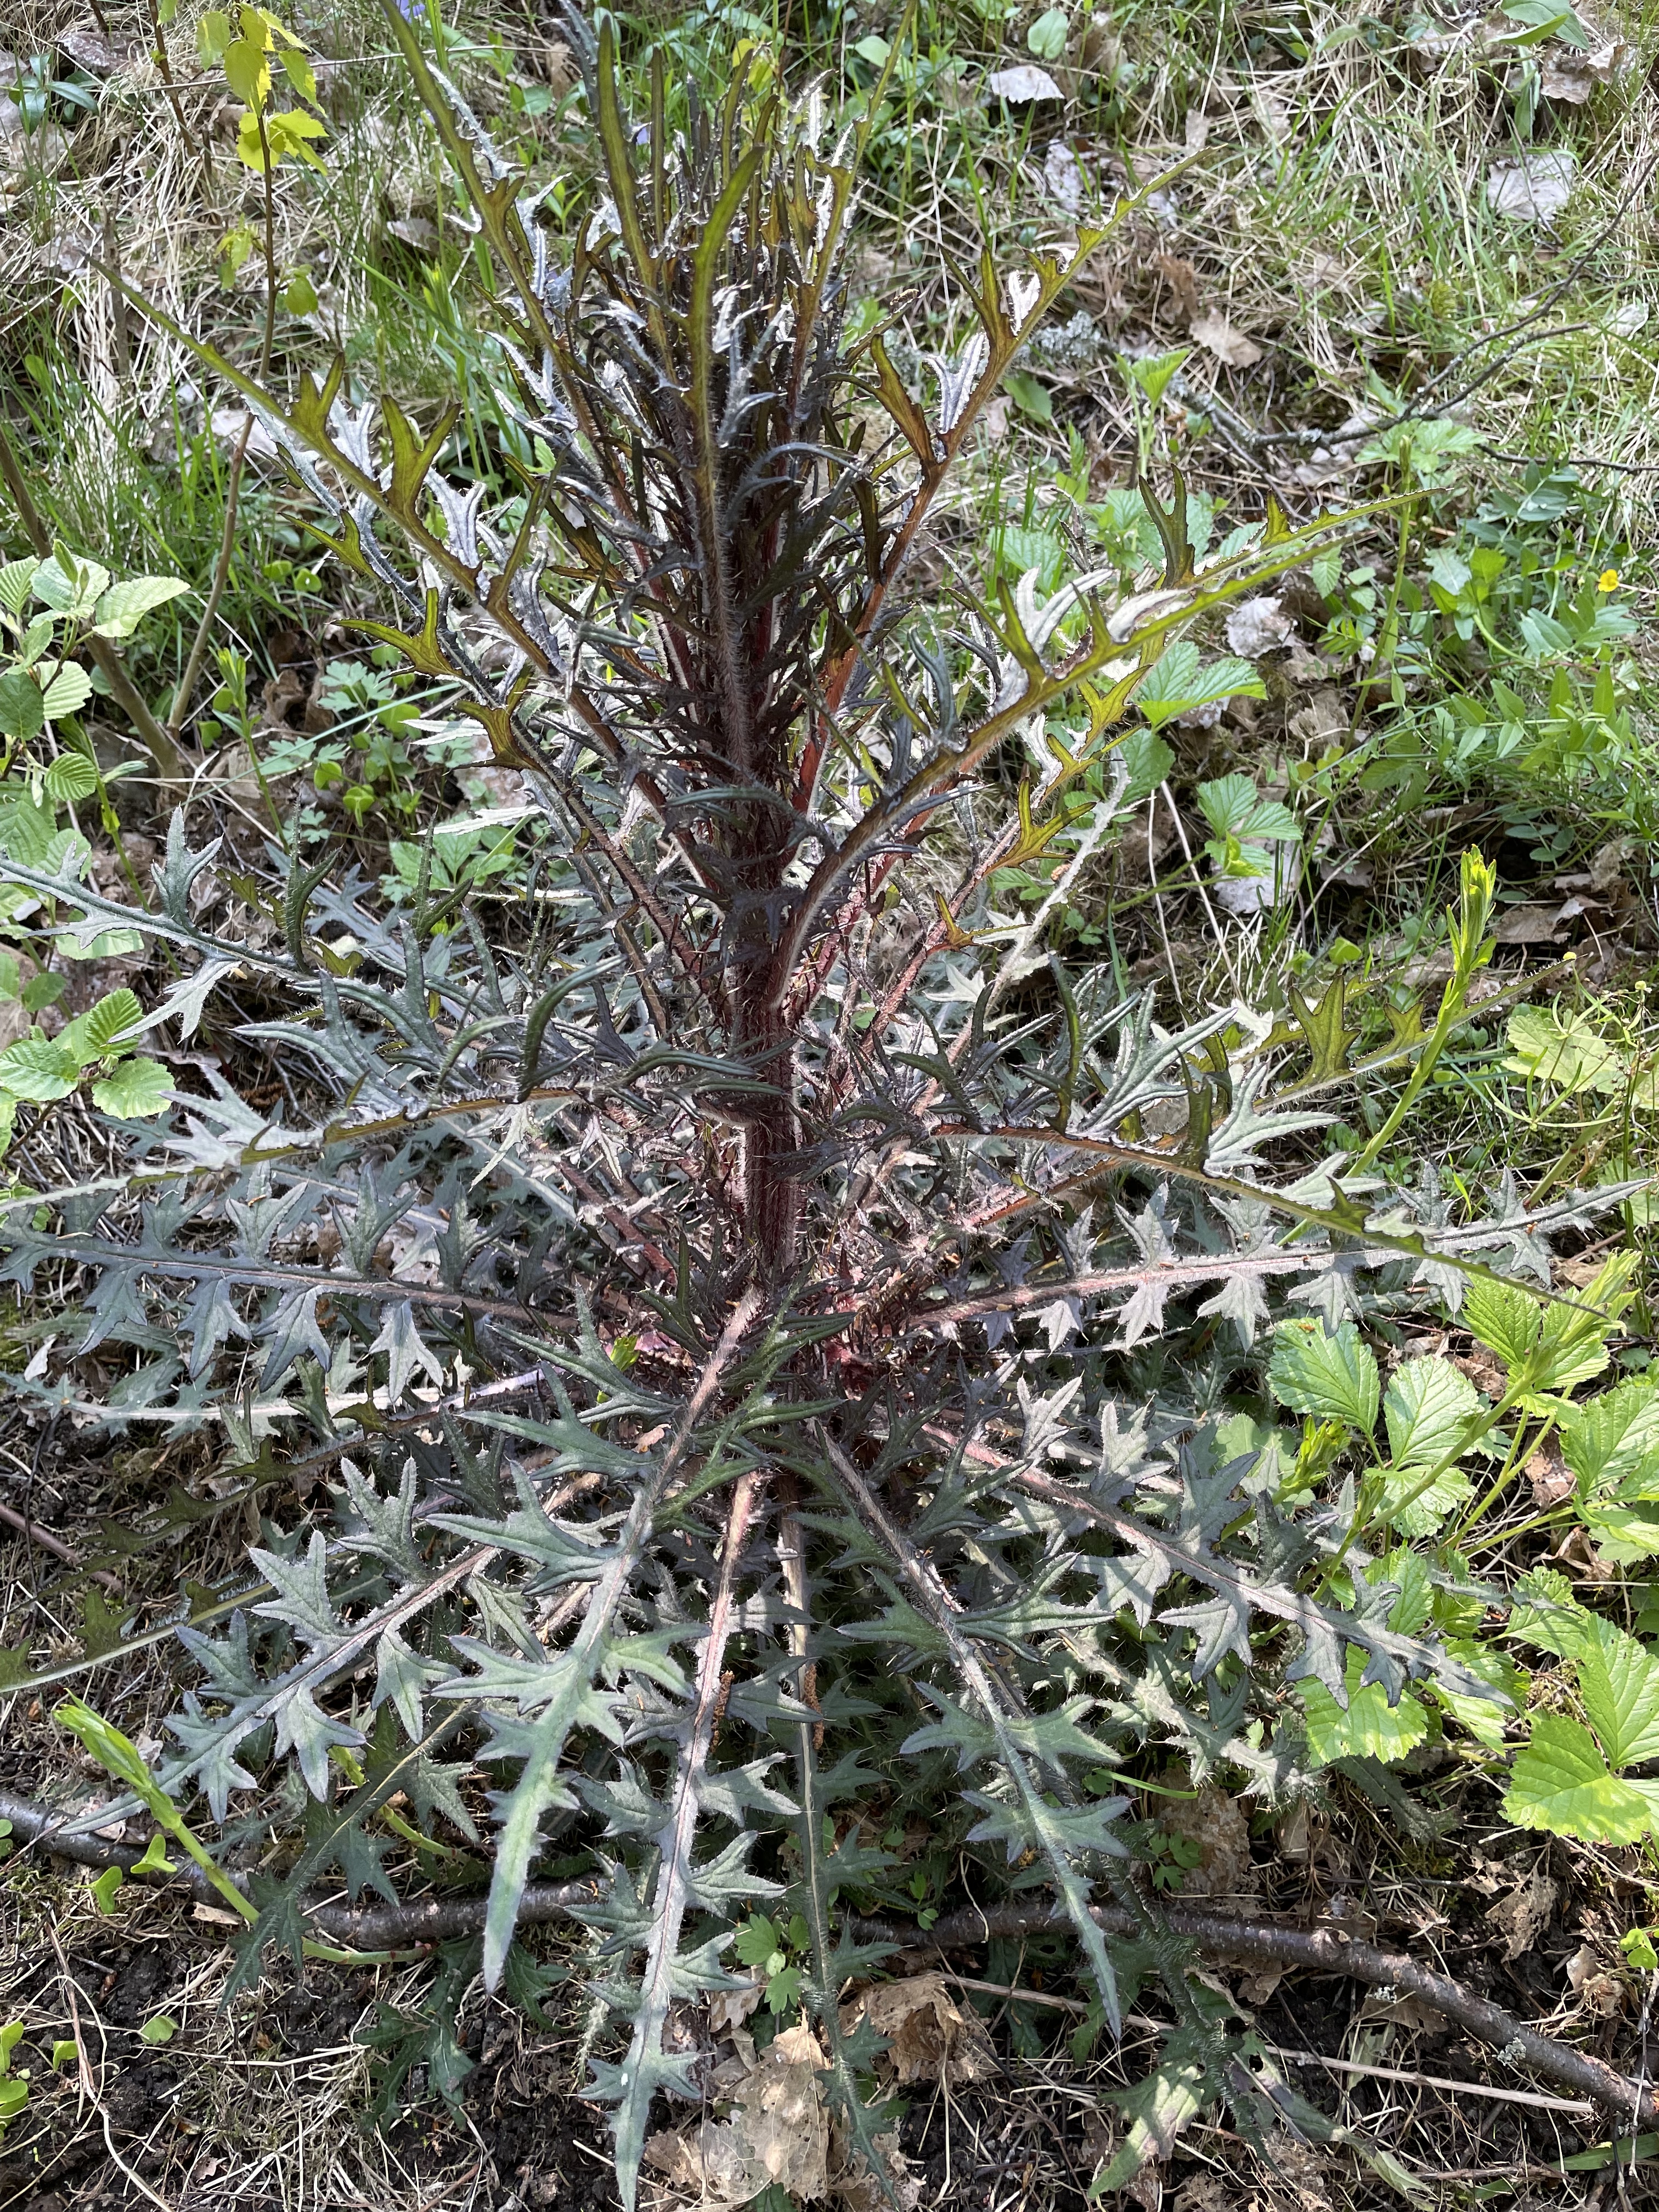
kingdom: Plantae
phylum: Tracheophyta
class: Magnoliopsida
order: Asterales
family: Asteraceae
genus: Carduus
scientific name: Carduus
